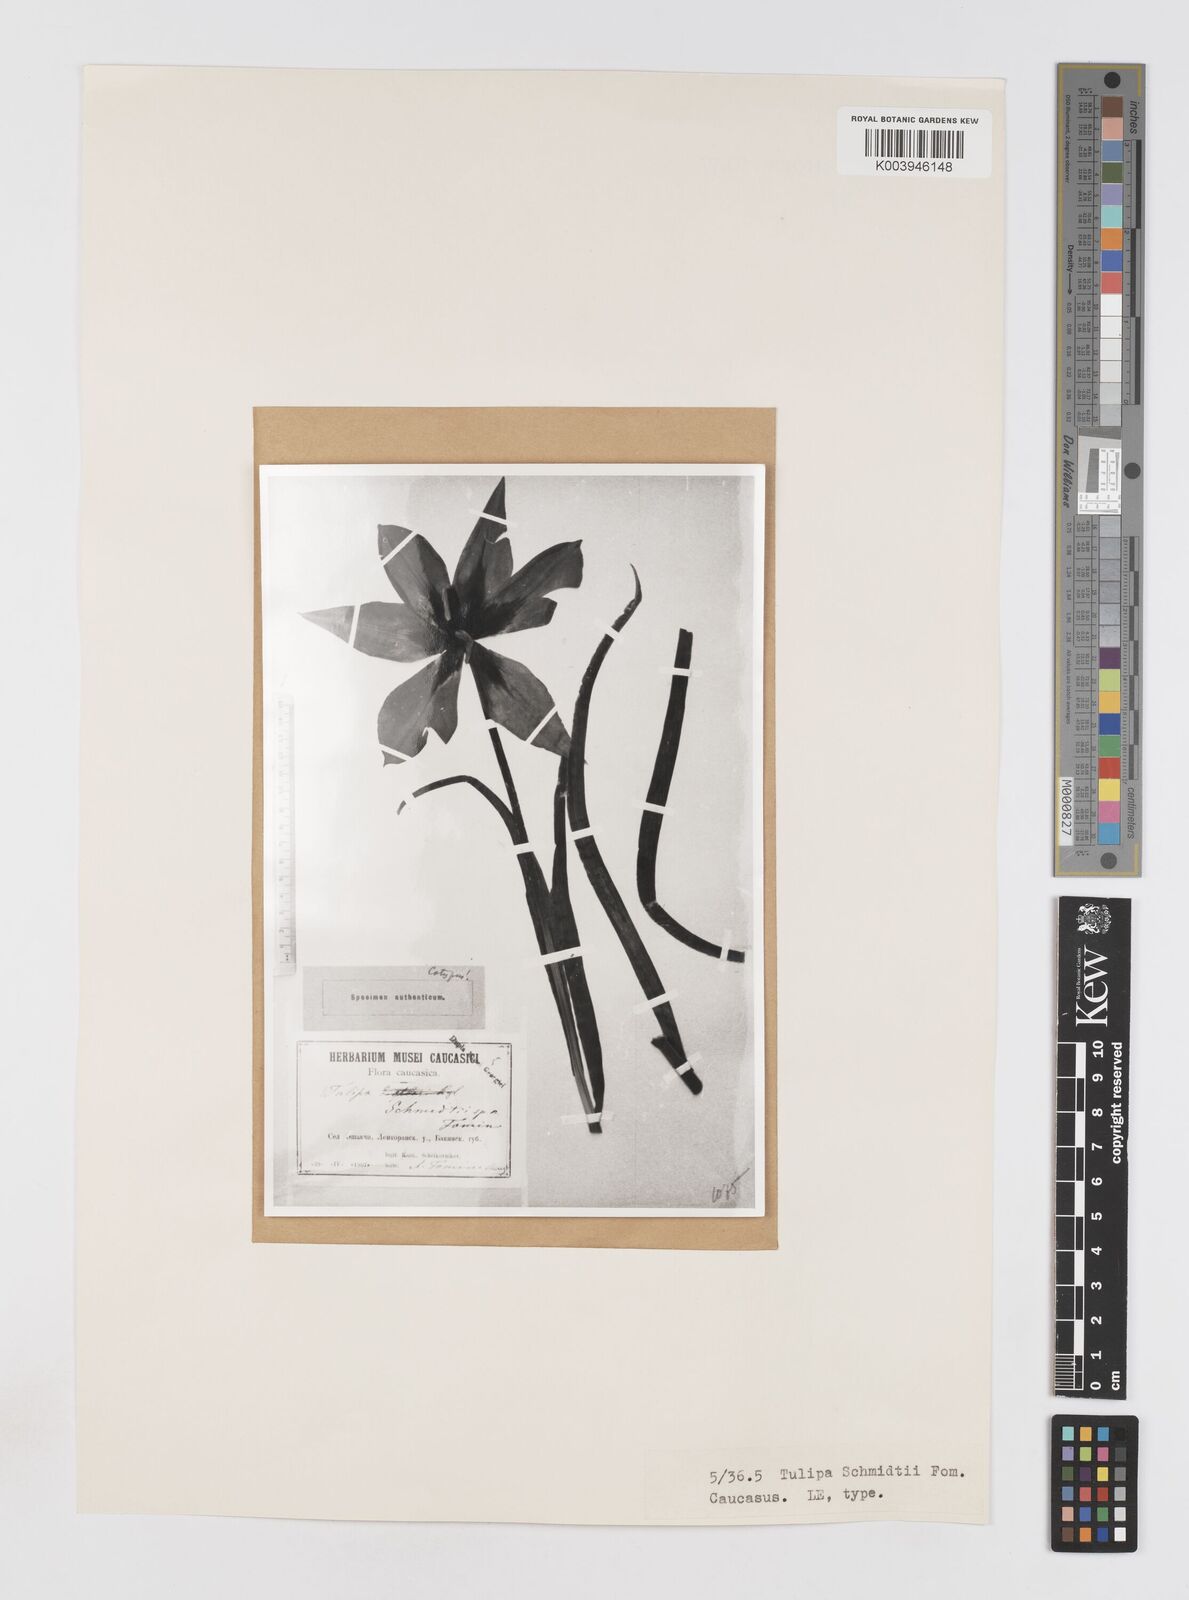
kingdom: Plantae
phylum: Tracheophyta
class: Liliopsida
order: Liliales
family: Liliaceae
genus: Tulipa
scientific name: Tulipa schmidtii
